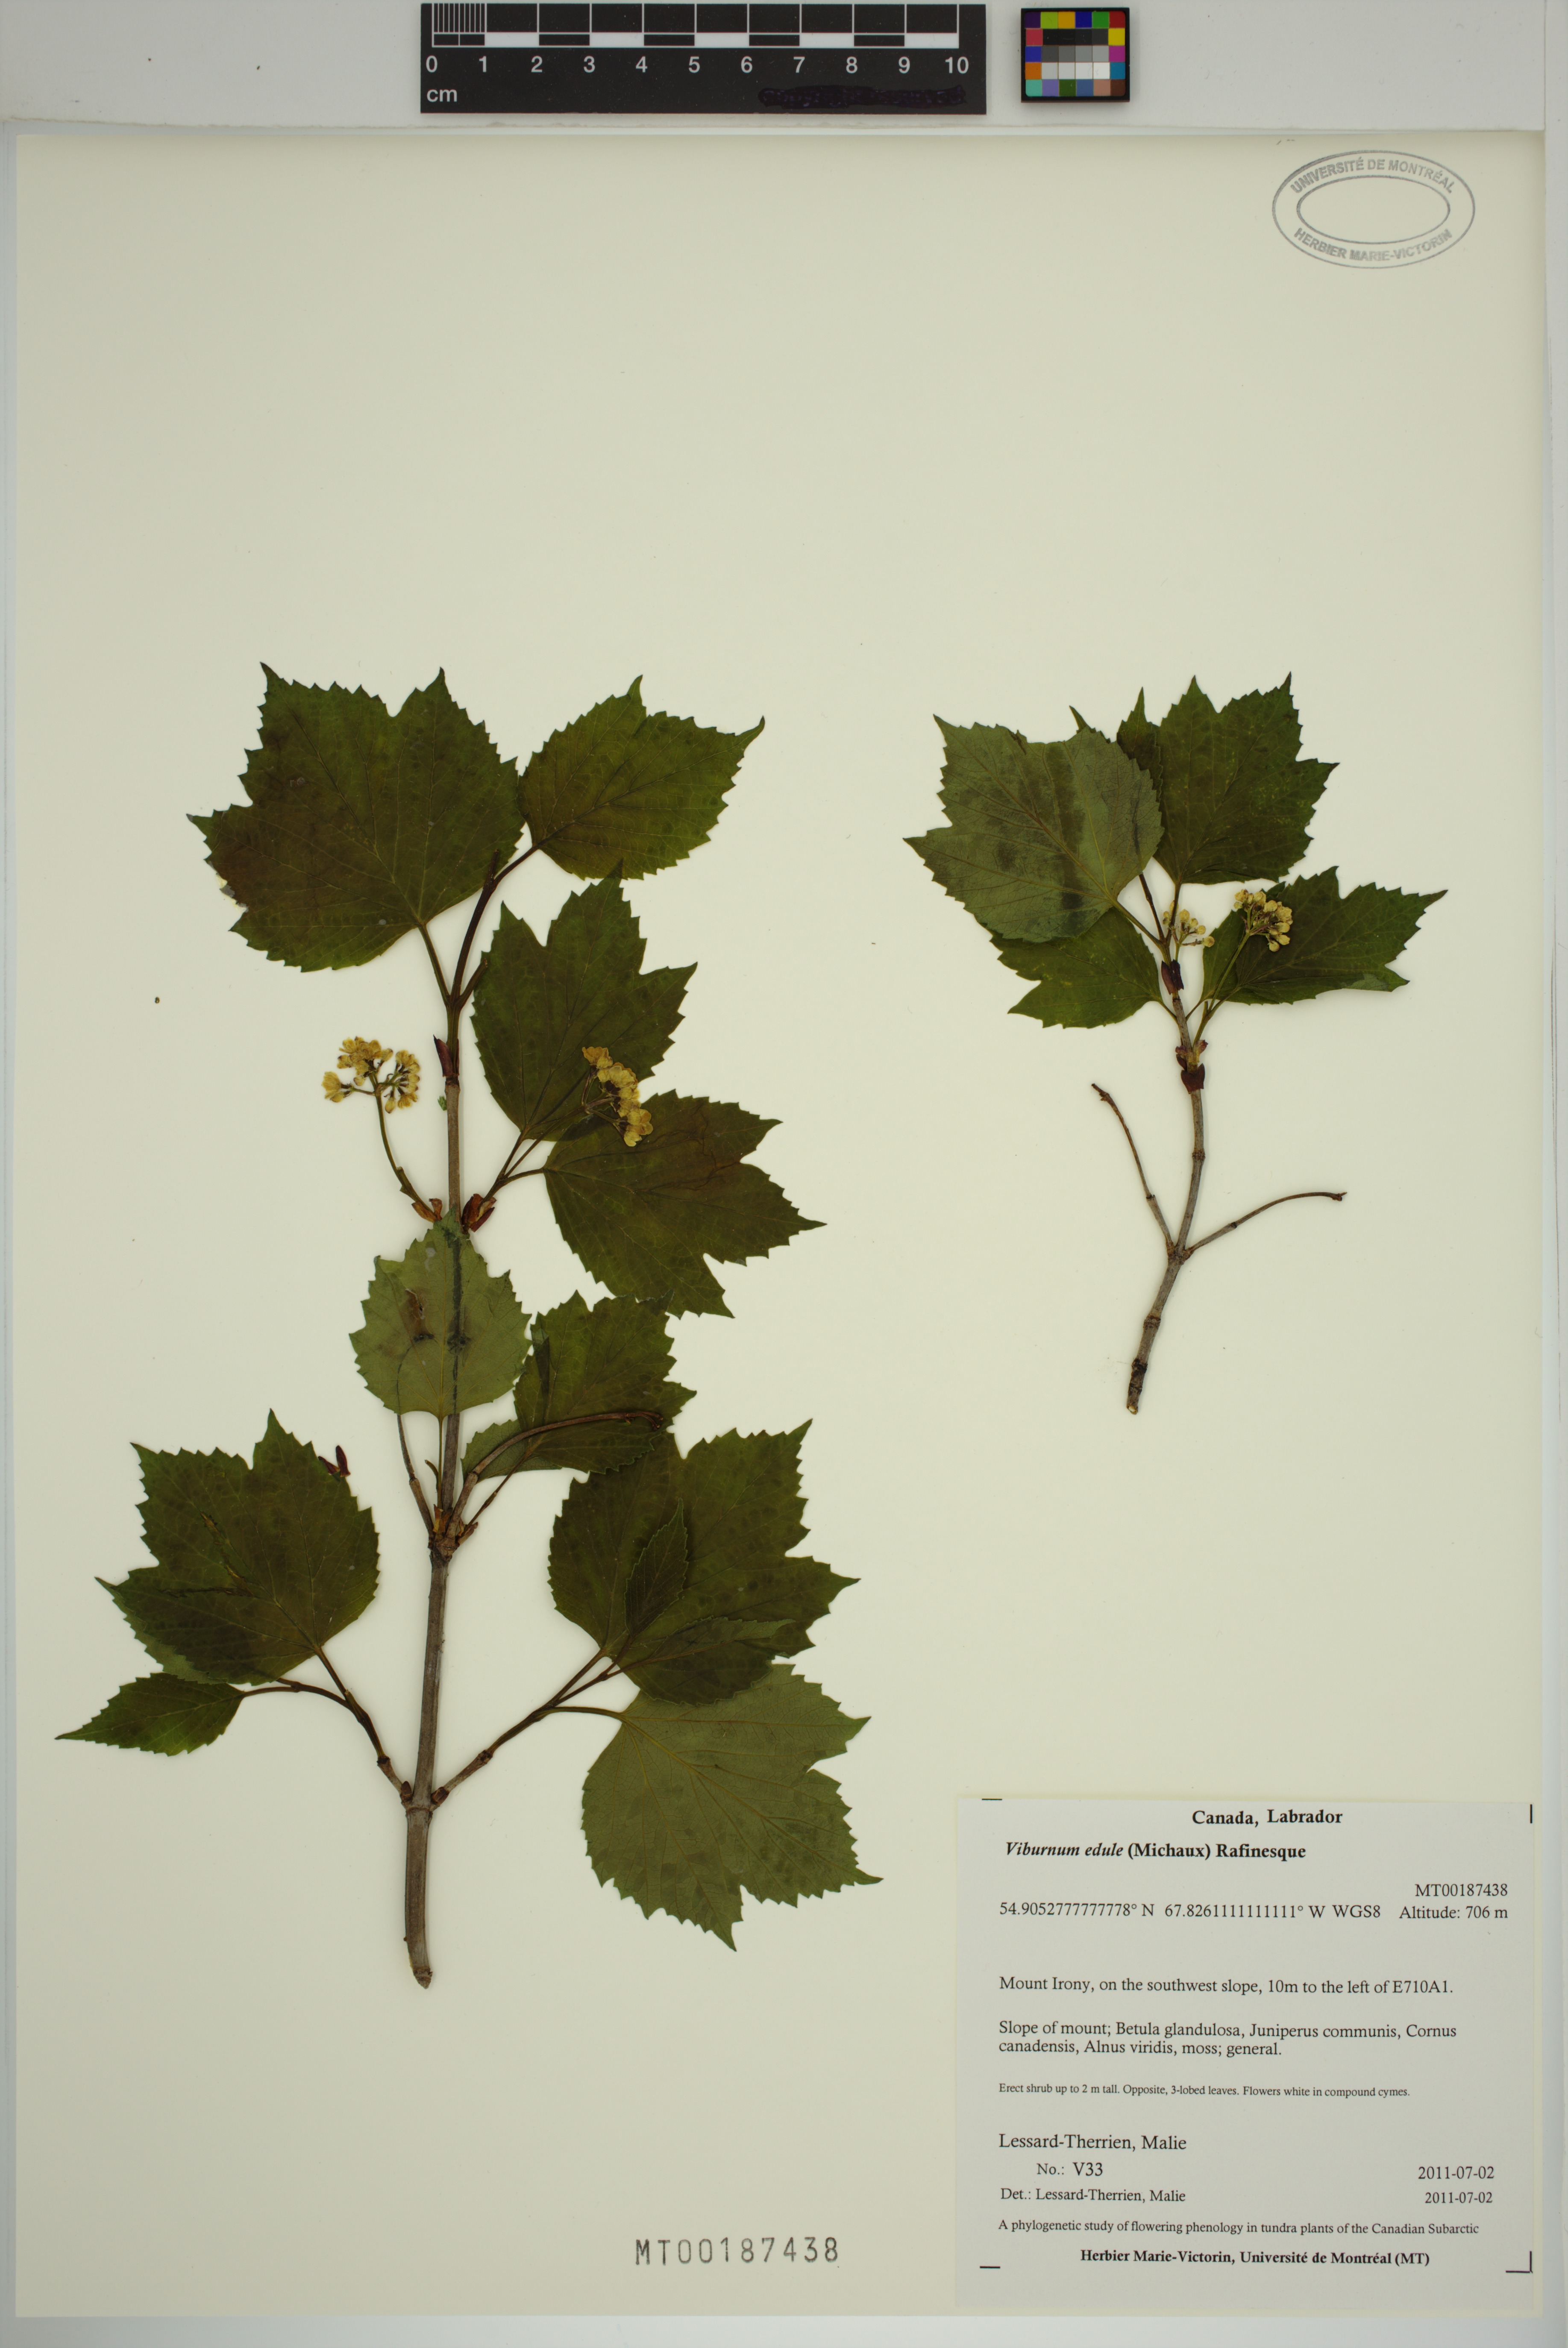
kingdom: Plantae
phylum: Tracheophyta
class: Magnoliopsida
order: Dipsacales
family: Viburnaceae
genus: Viburnum
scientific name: Viburnum edule
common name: Mooseberry
